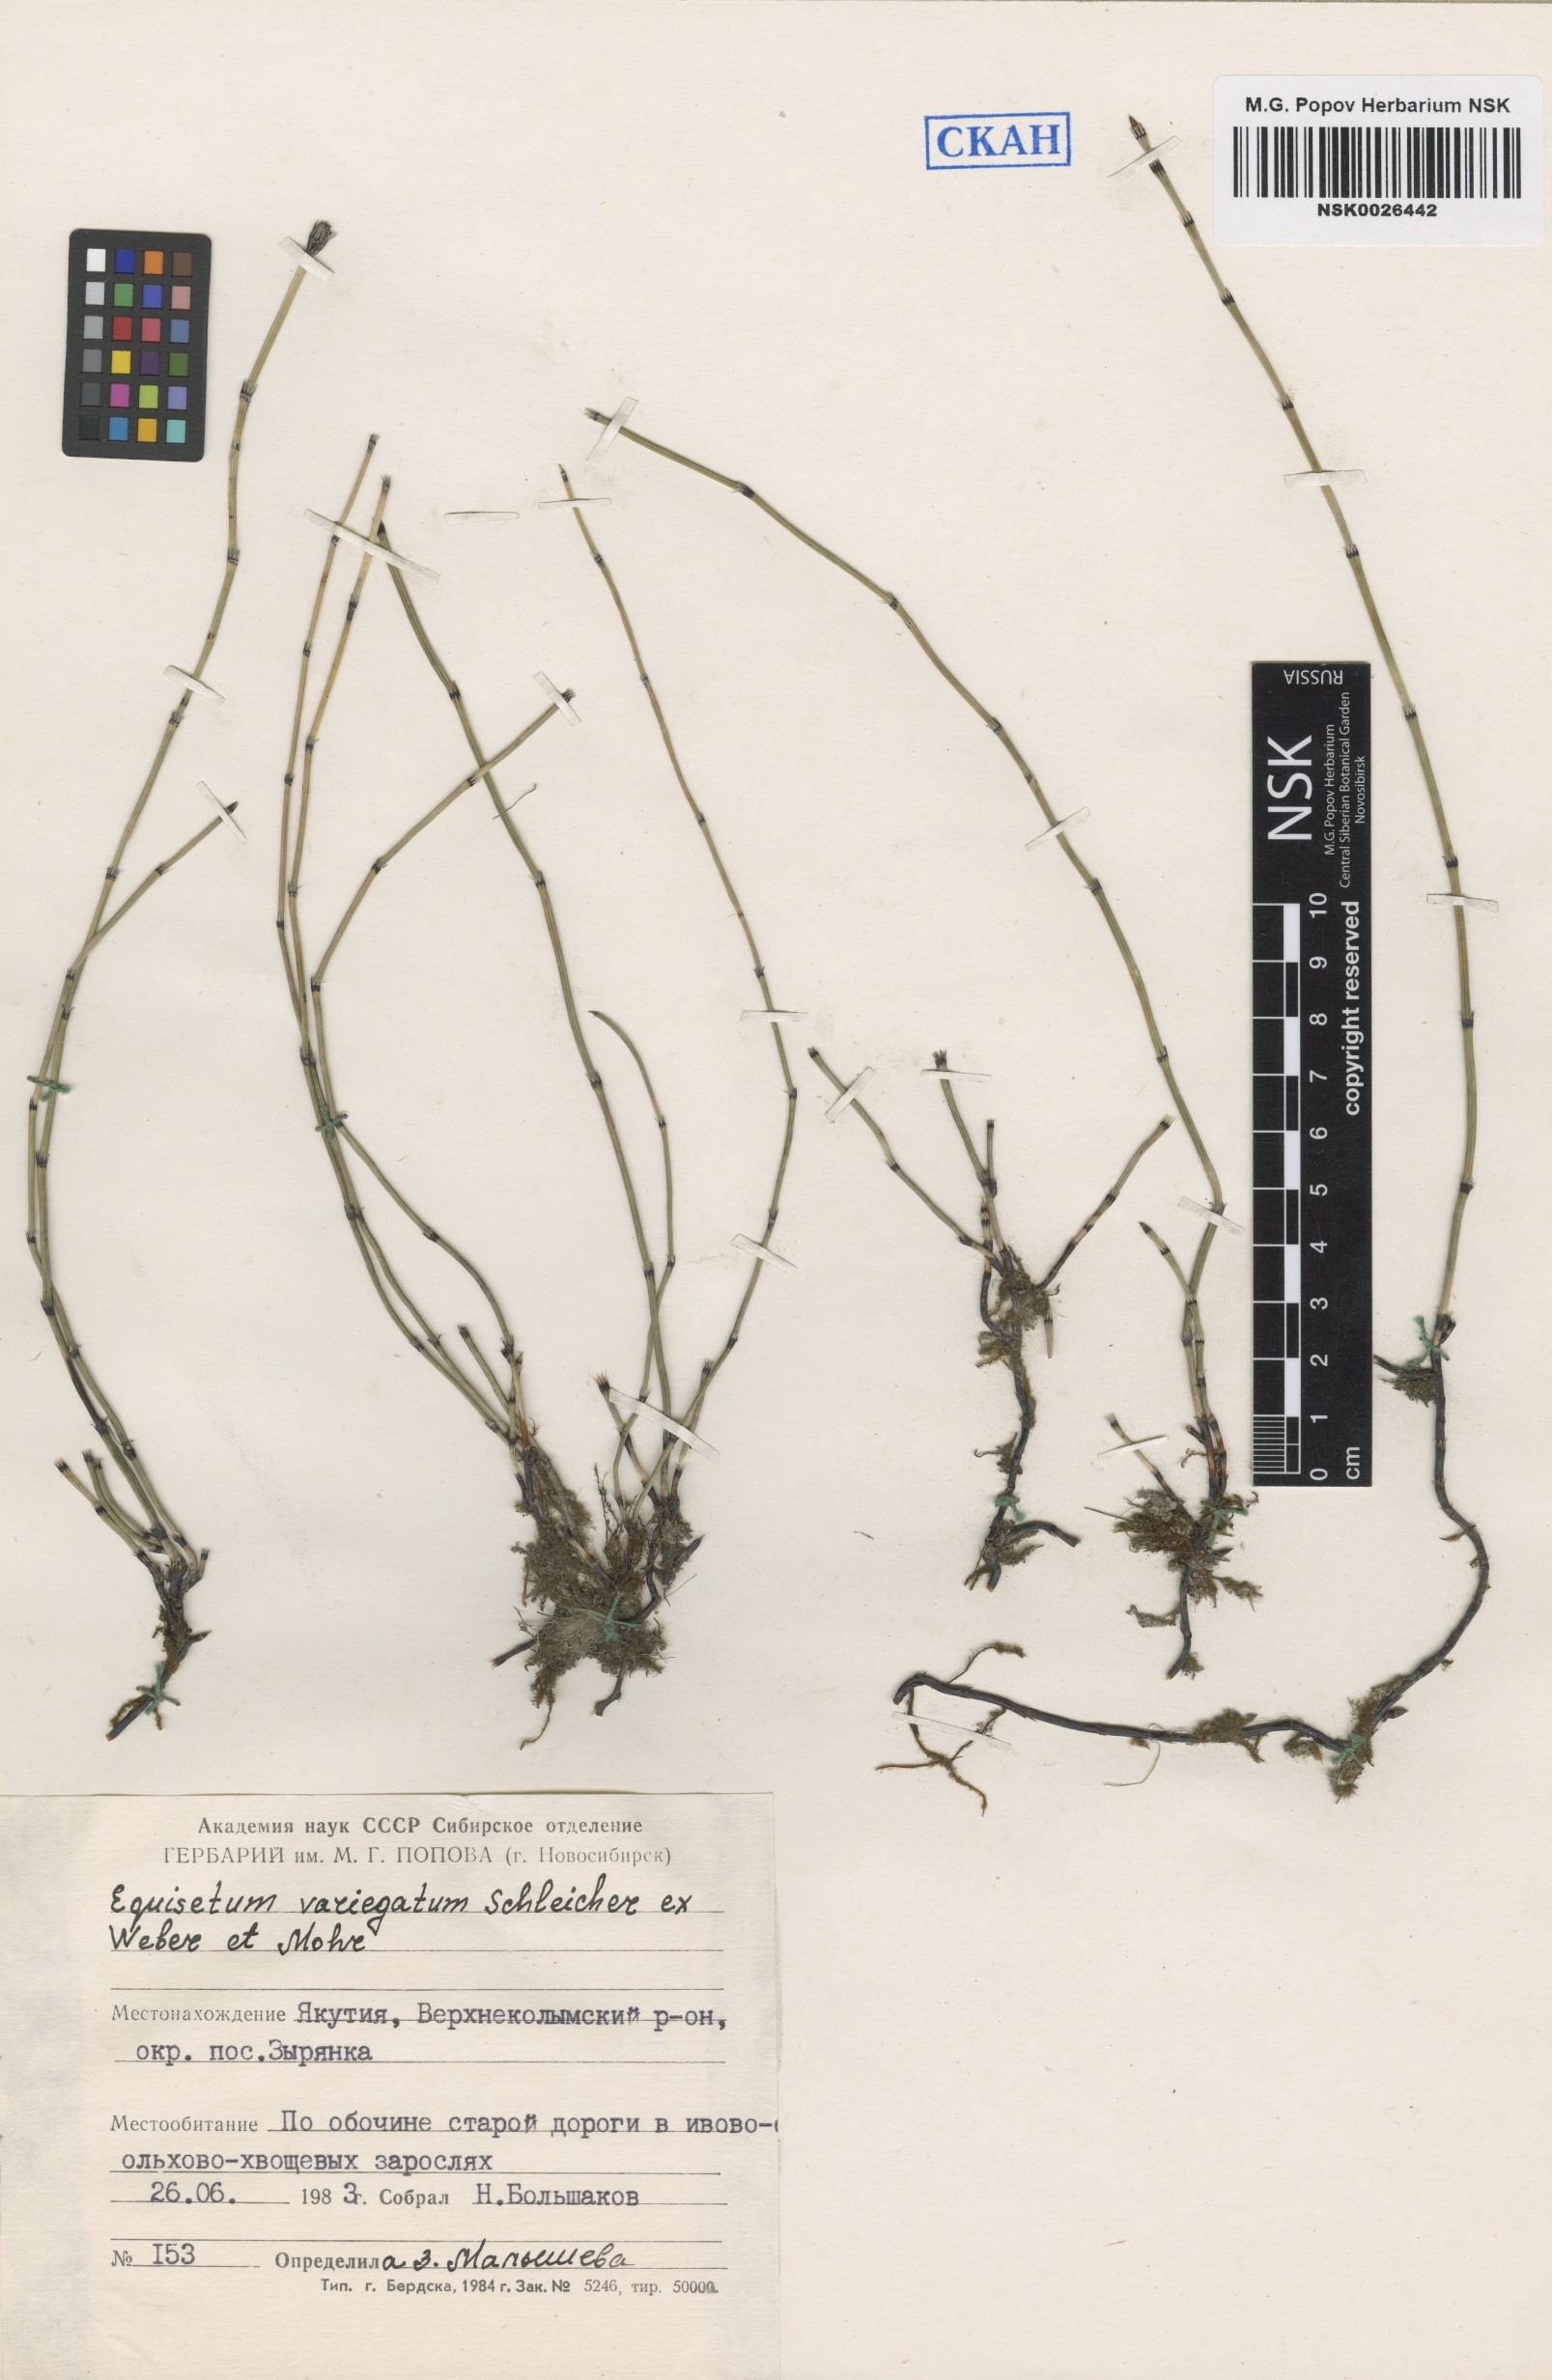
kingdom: Plantae
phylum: Tracheophyta
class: Polypodiopsida
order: Equisetales
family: Equisetaceae
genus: Equisetum
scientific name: Equisetum variegatum
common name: Variegated horsetail
